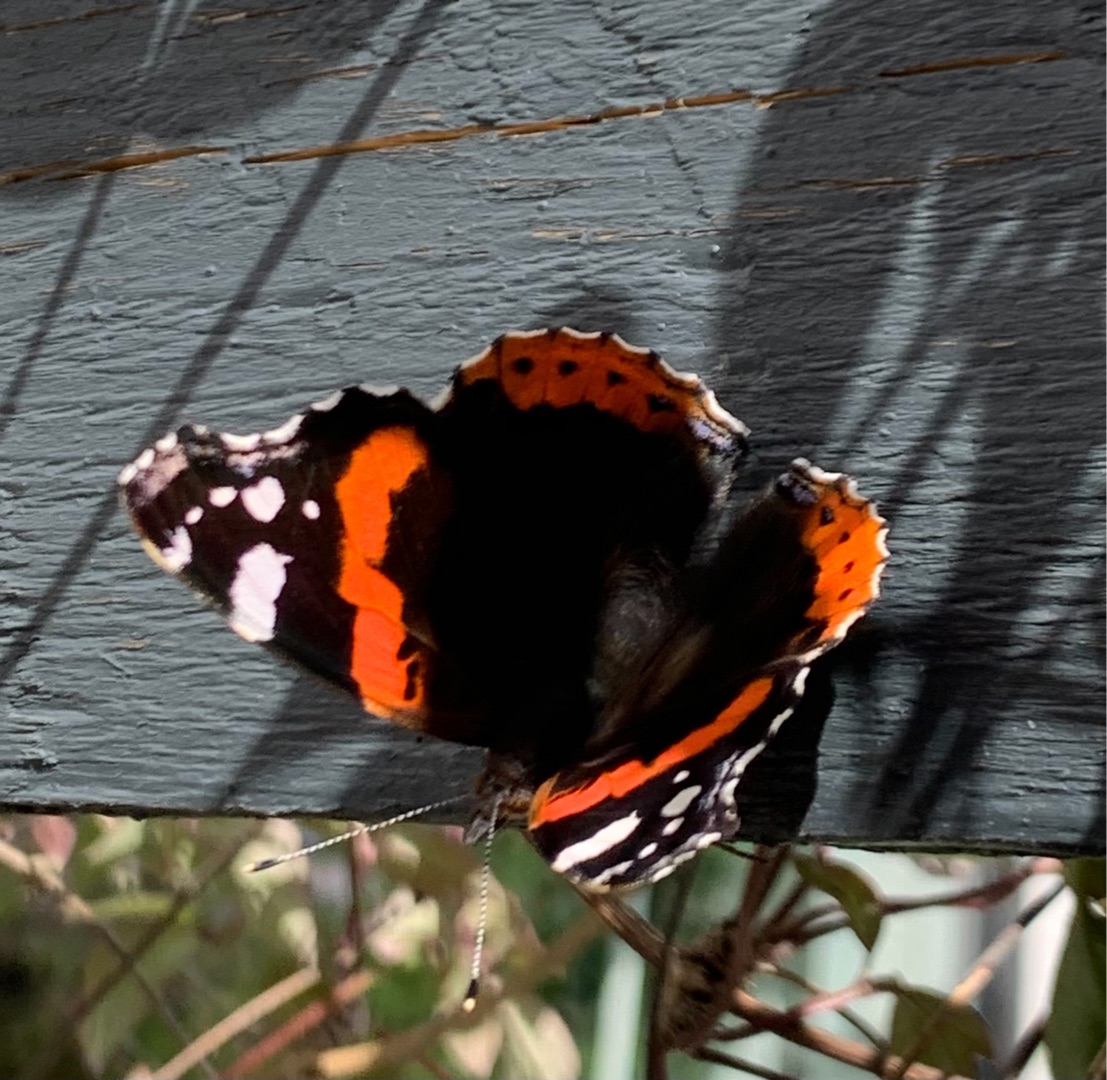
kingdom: Animalia
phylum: Arthropoda
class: Insecta
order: Lepidoptera
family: Nymphalidae
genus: Vanessa
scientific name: Vanessa atalanta
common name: Admiral
